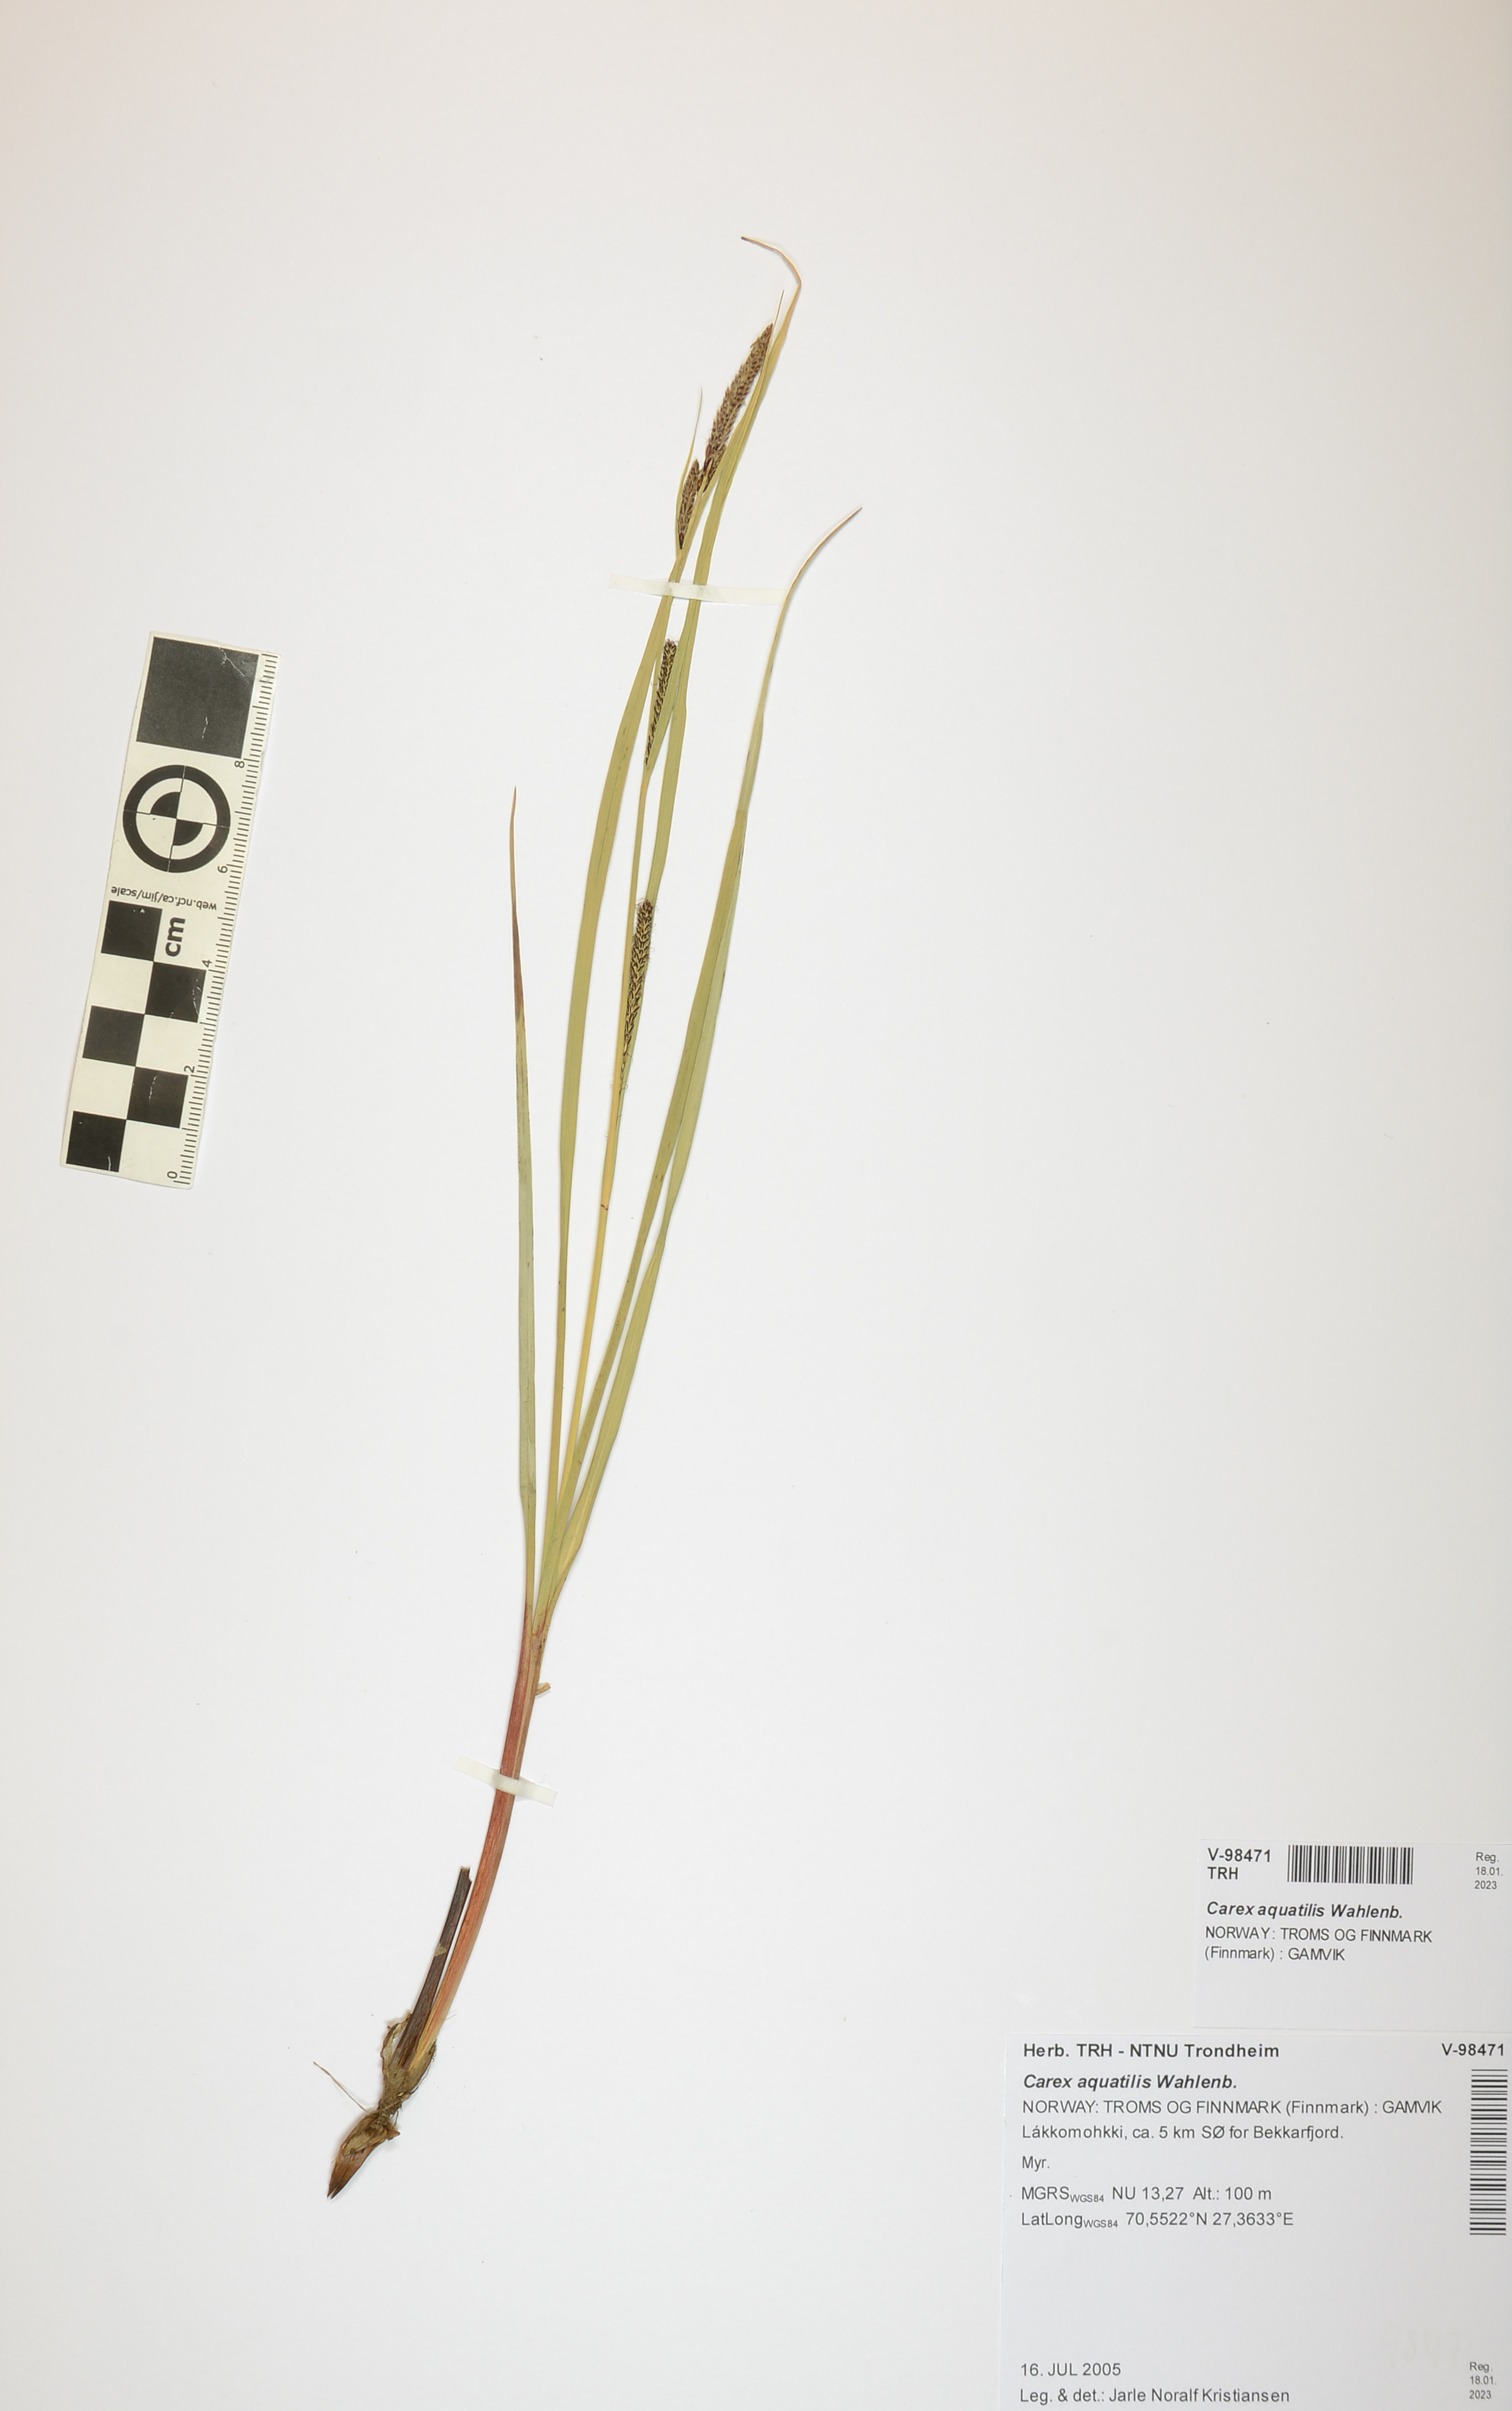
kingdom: Plantae
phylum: Tracheophyta
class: Liliopsida
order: Poales
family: Cyperaceae
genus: Carex
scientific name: Carex aquatilis
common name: Water sedge
